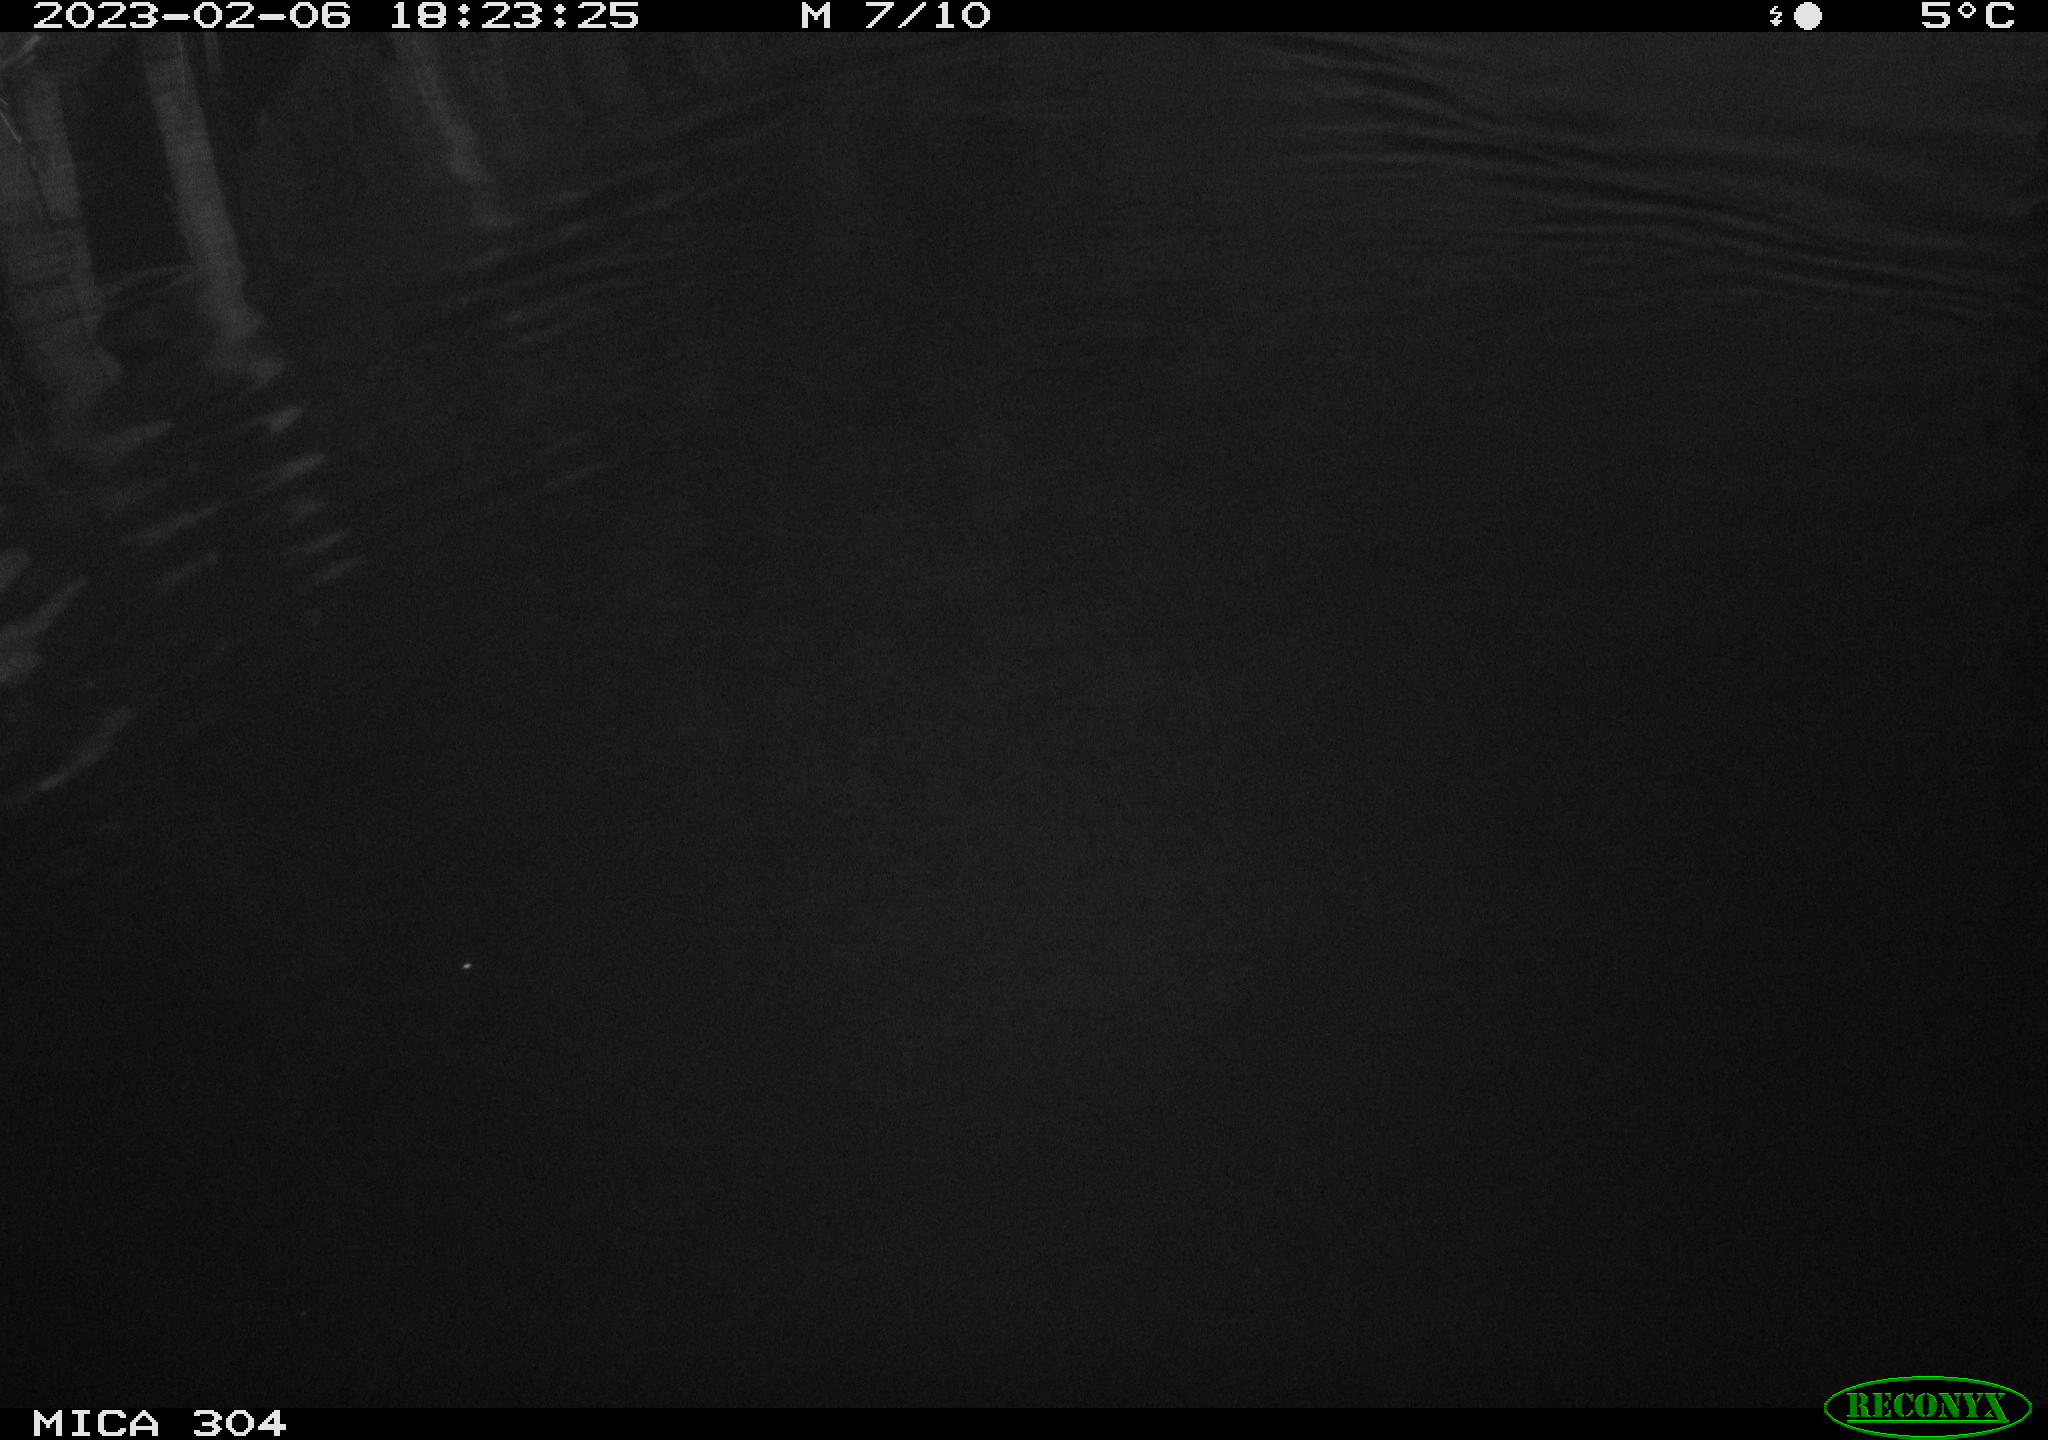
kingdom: Animalia
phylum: Chordata
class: Aves
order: Anseriformes
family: Anatidae
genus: Anas
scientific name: Anas
